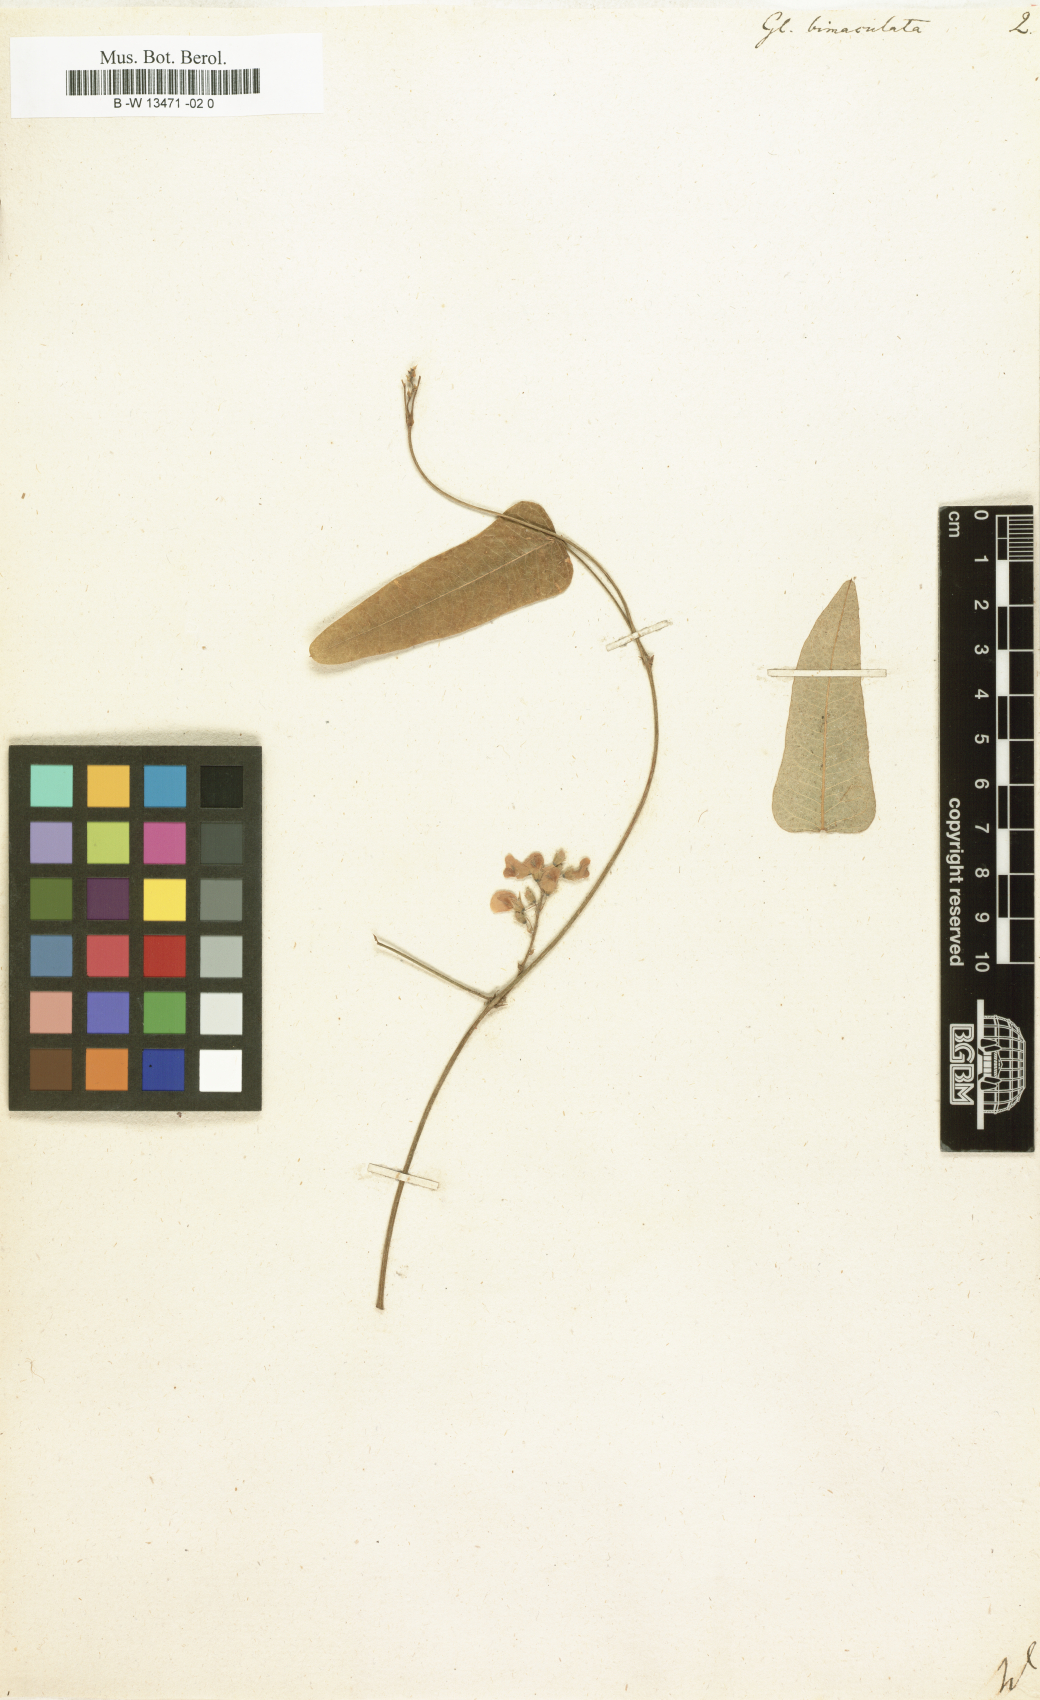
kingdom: Plantae
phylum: Tracheophyta
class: Magnoliopsida
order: Fabales
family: Fabaceae
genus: Hardenbergia
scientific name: Hardenbergia violacea
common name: Coral-pea
